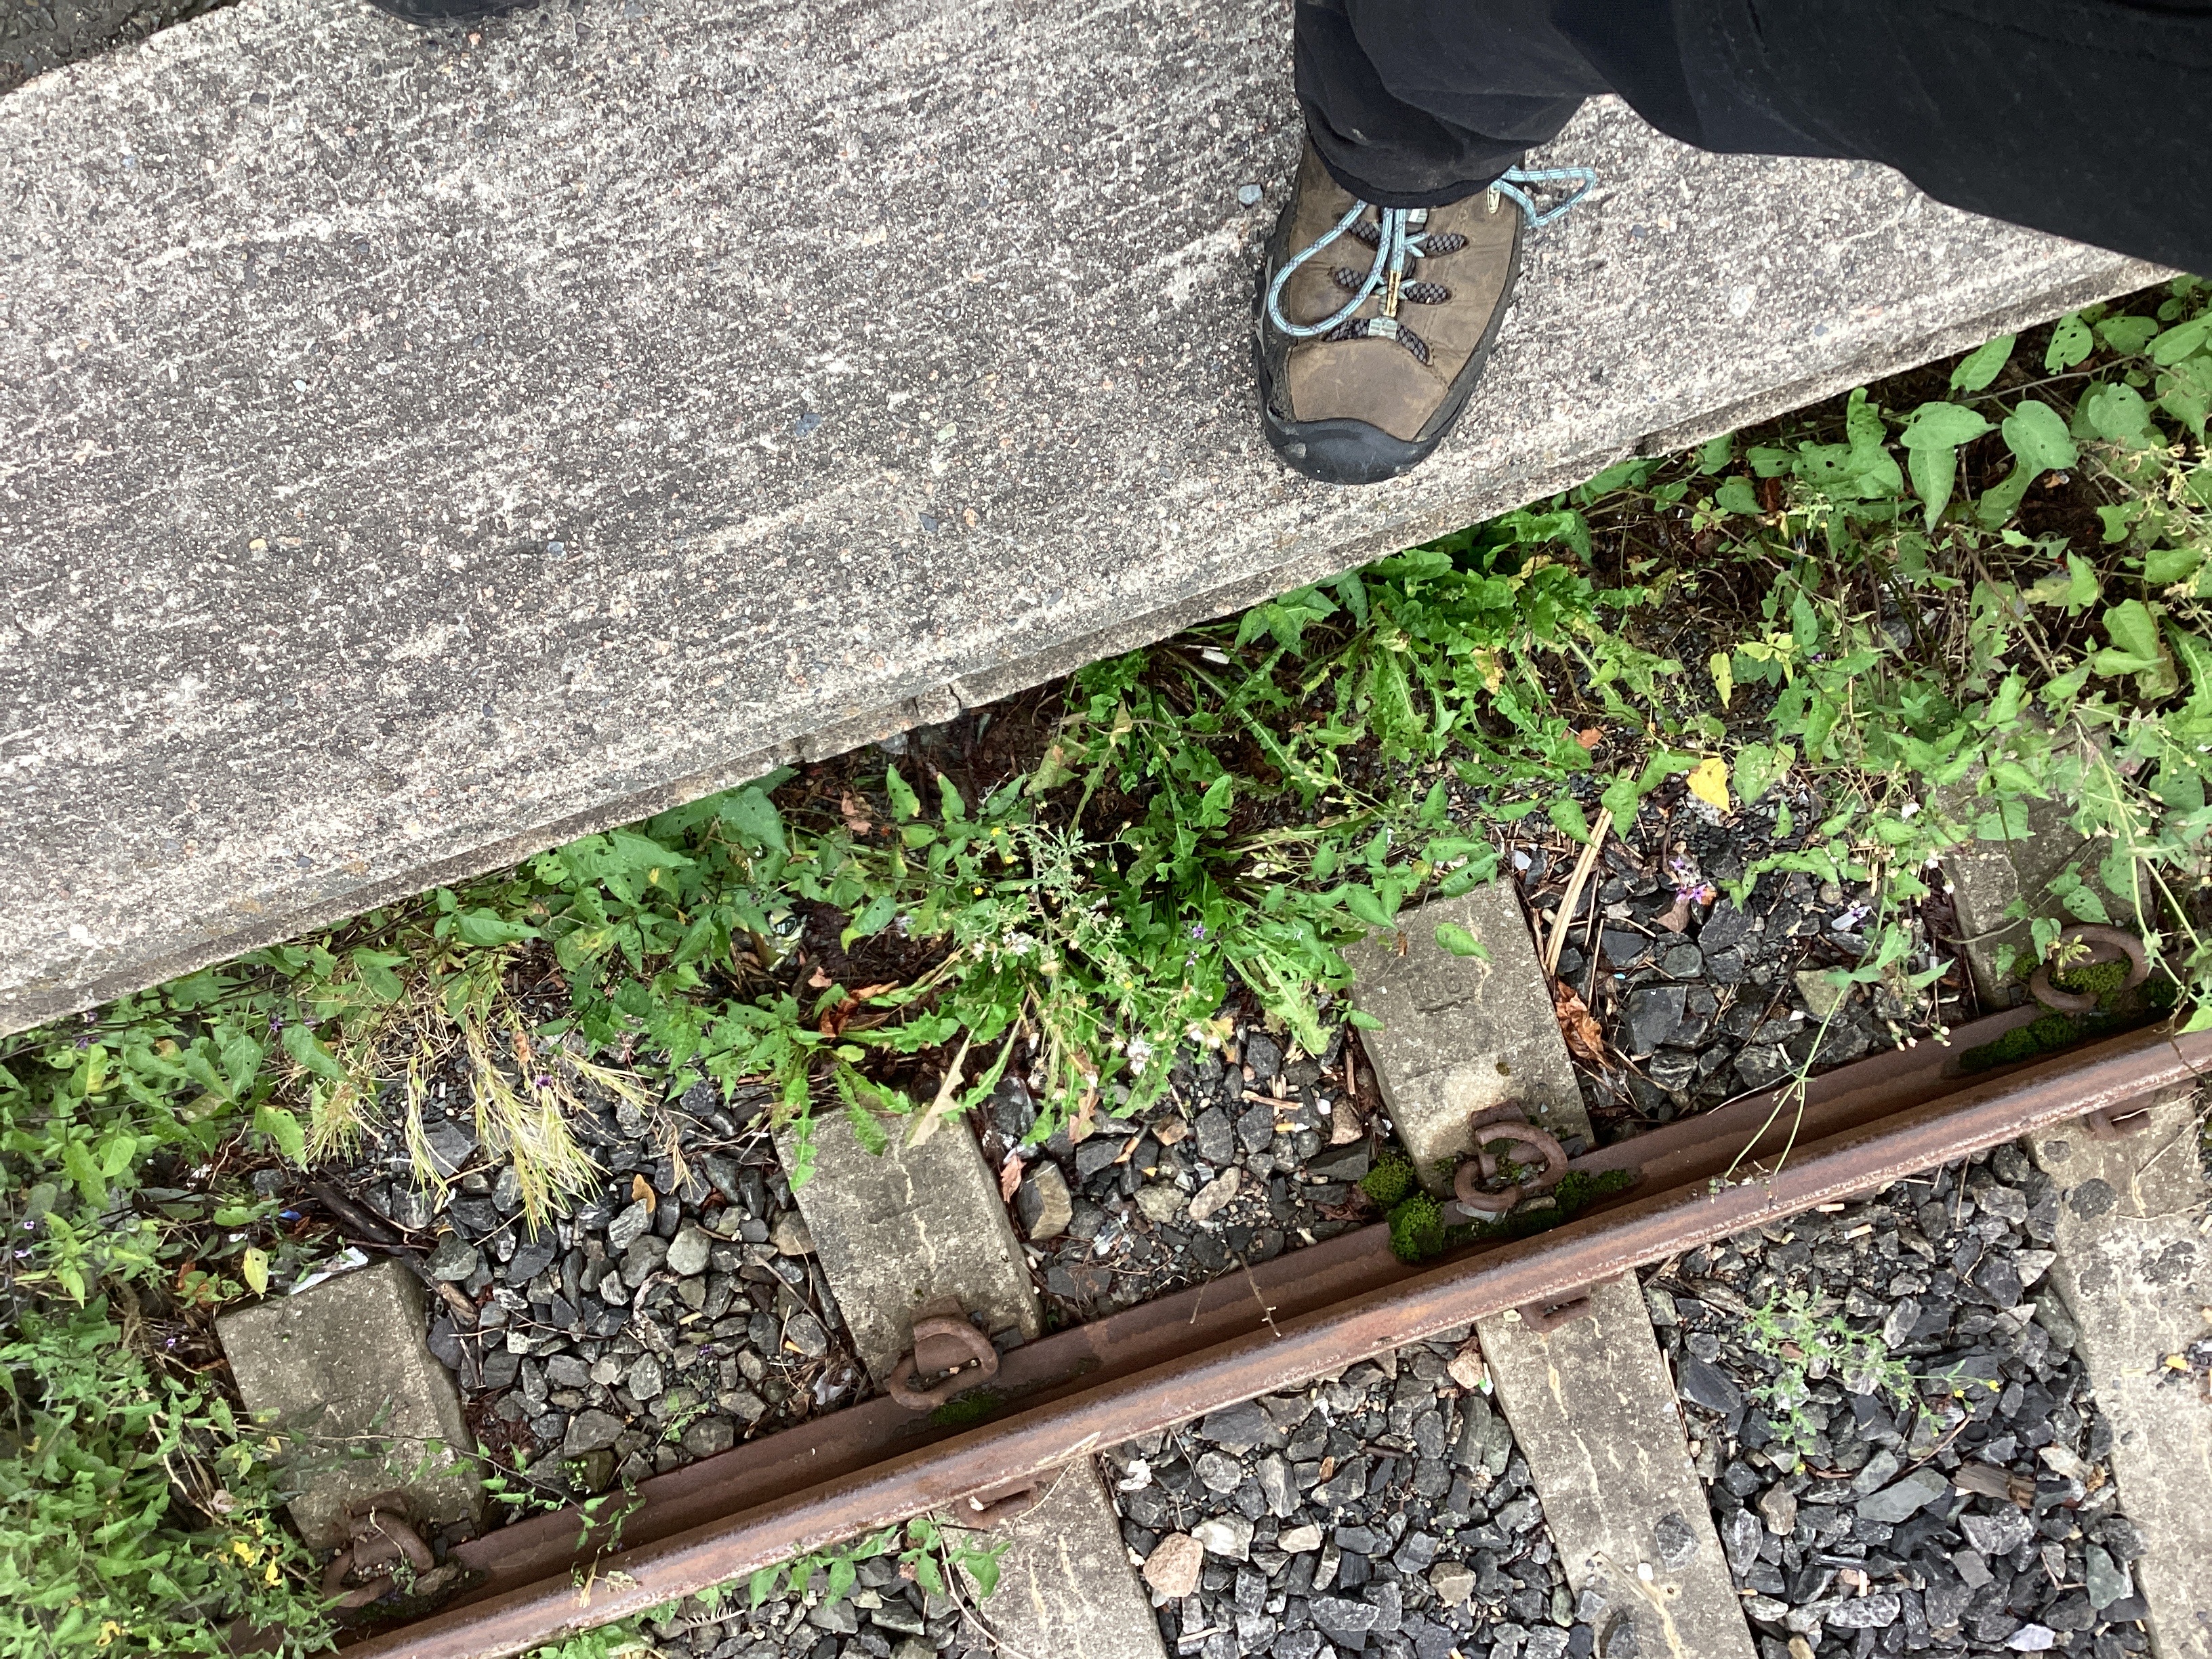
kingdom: Plantae
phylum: Tracheophyta
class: Magnoliopsida
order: Asterales
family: Asteraceae
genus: Senecio
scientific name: Senecio viscosus
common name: klistersvineblom
